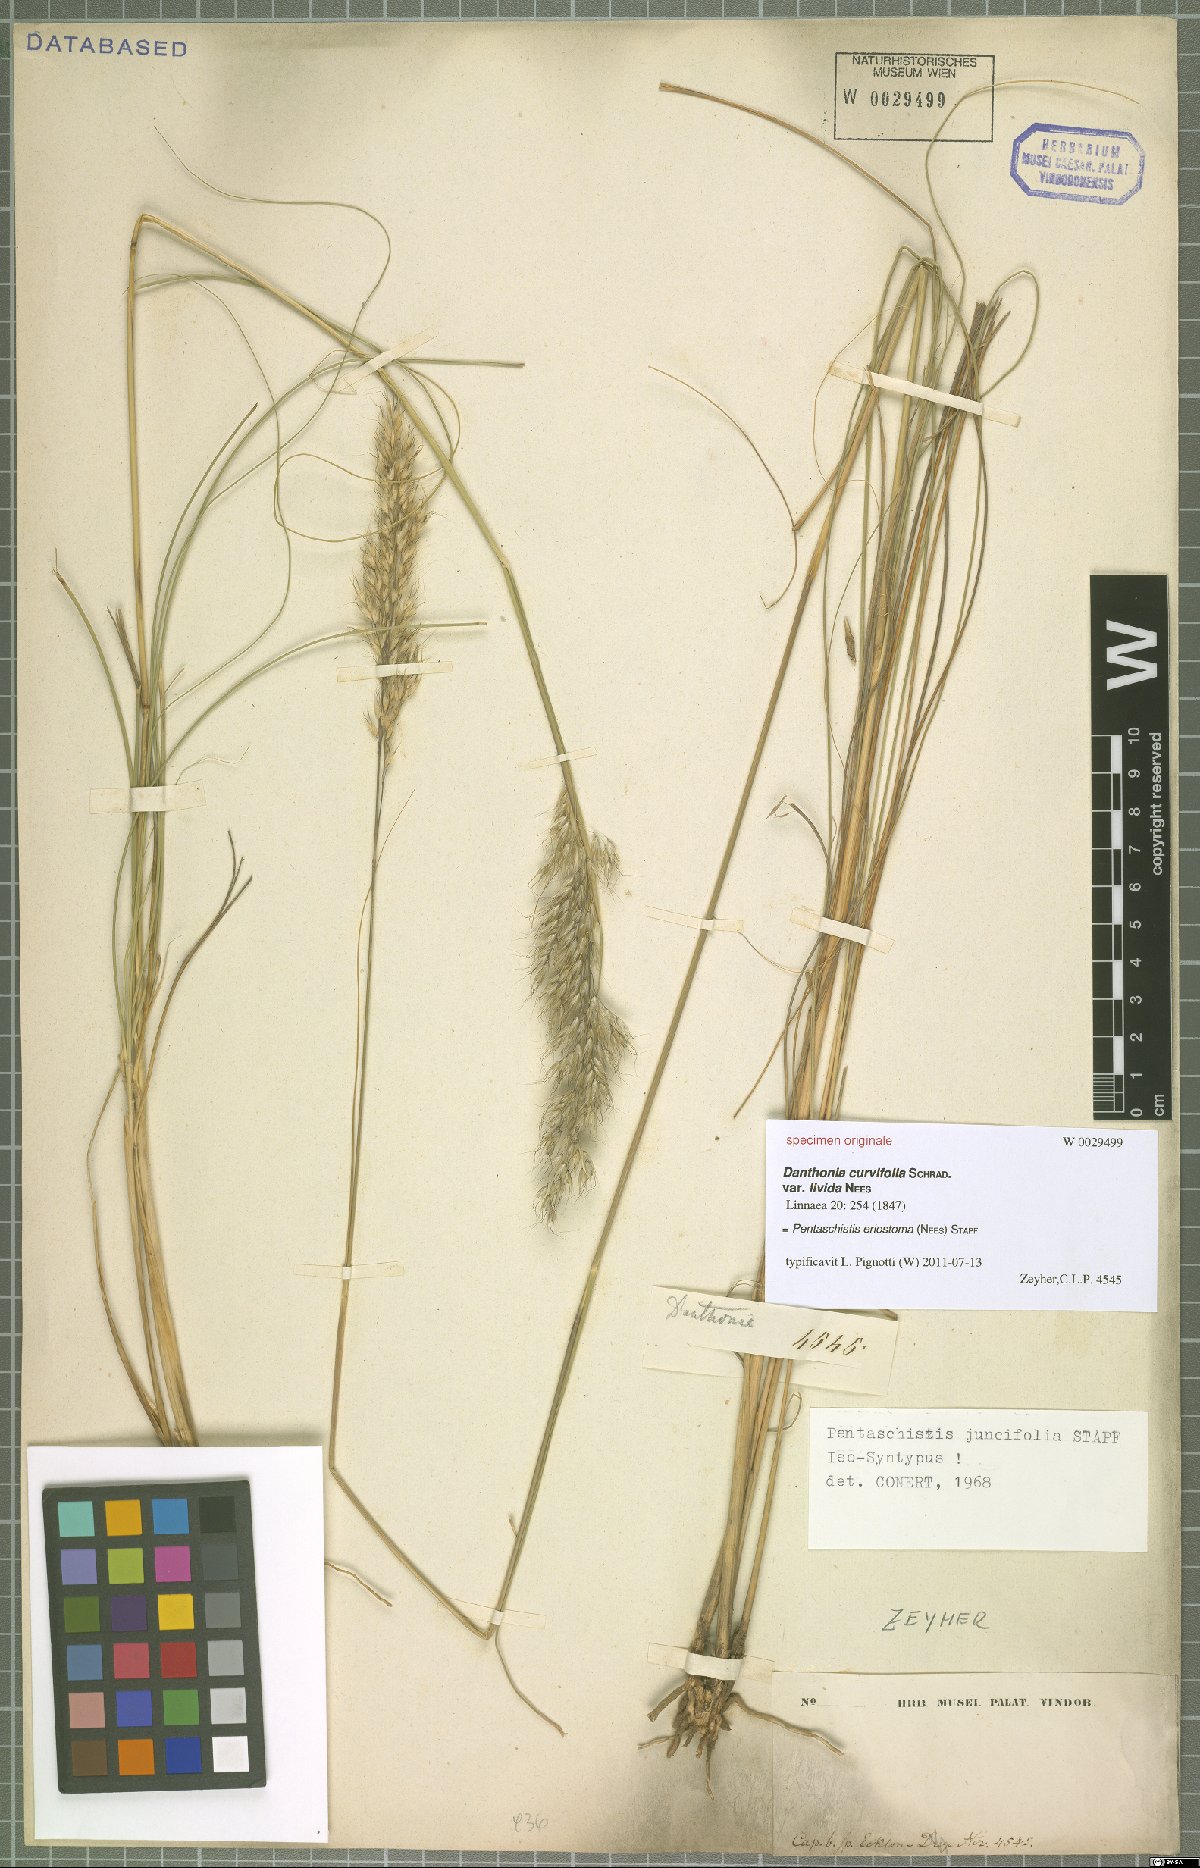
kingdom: Plantae
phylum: Tracheophyta
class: Liliopsida
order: Poales
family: Poaceae
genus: Pentameris
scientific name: Pentameris eriostoma
